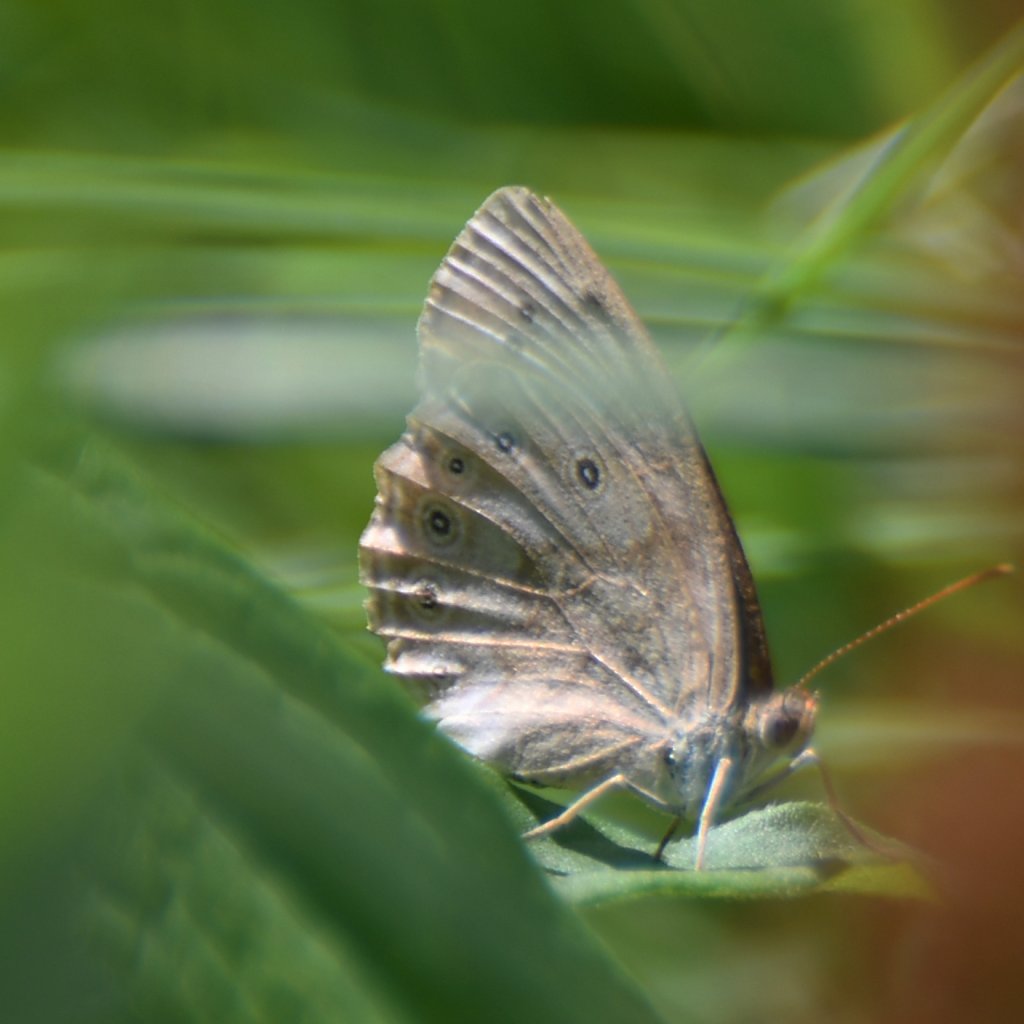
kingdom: Animalia
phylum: Arthropoda
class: Insecta
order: Lepidoptera
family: Nymphalidae
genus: Lethe
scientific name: Lethe eurydice
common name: Eyed Brown
